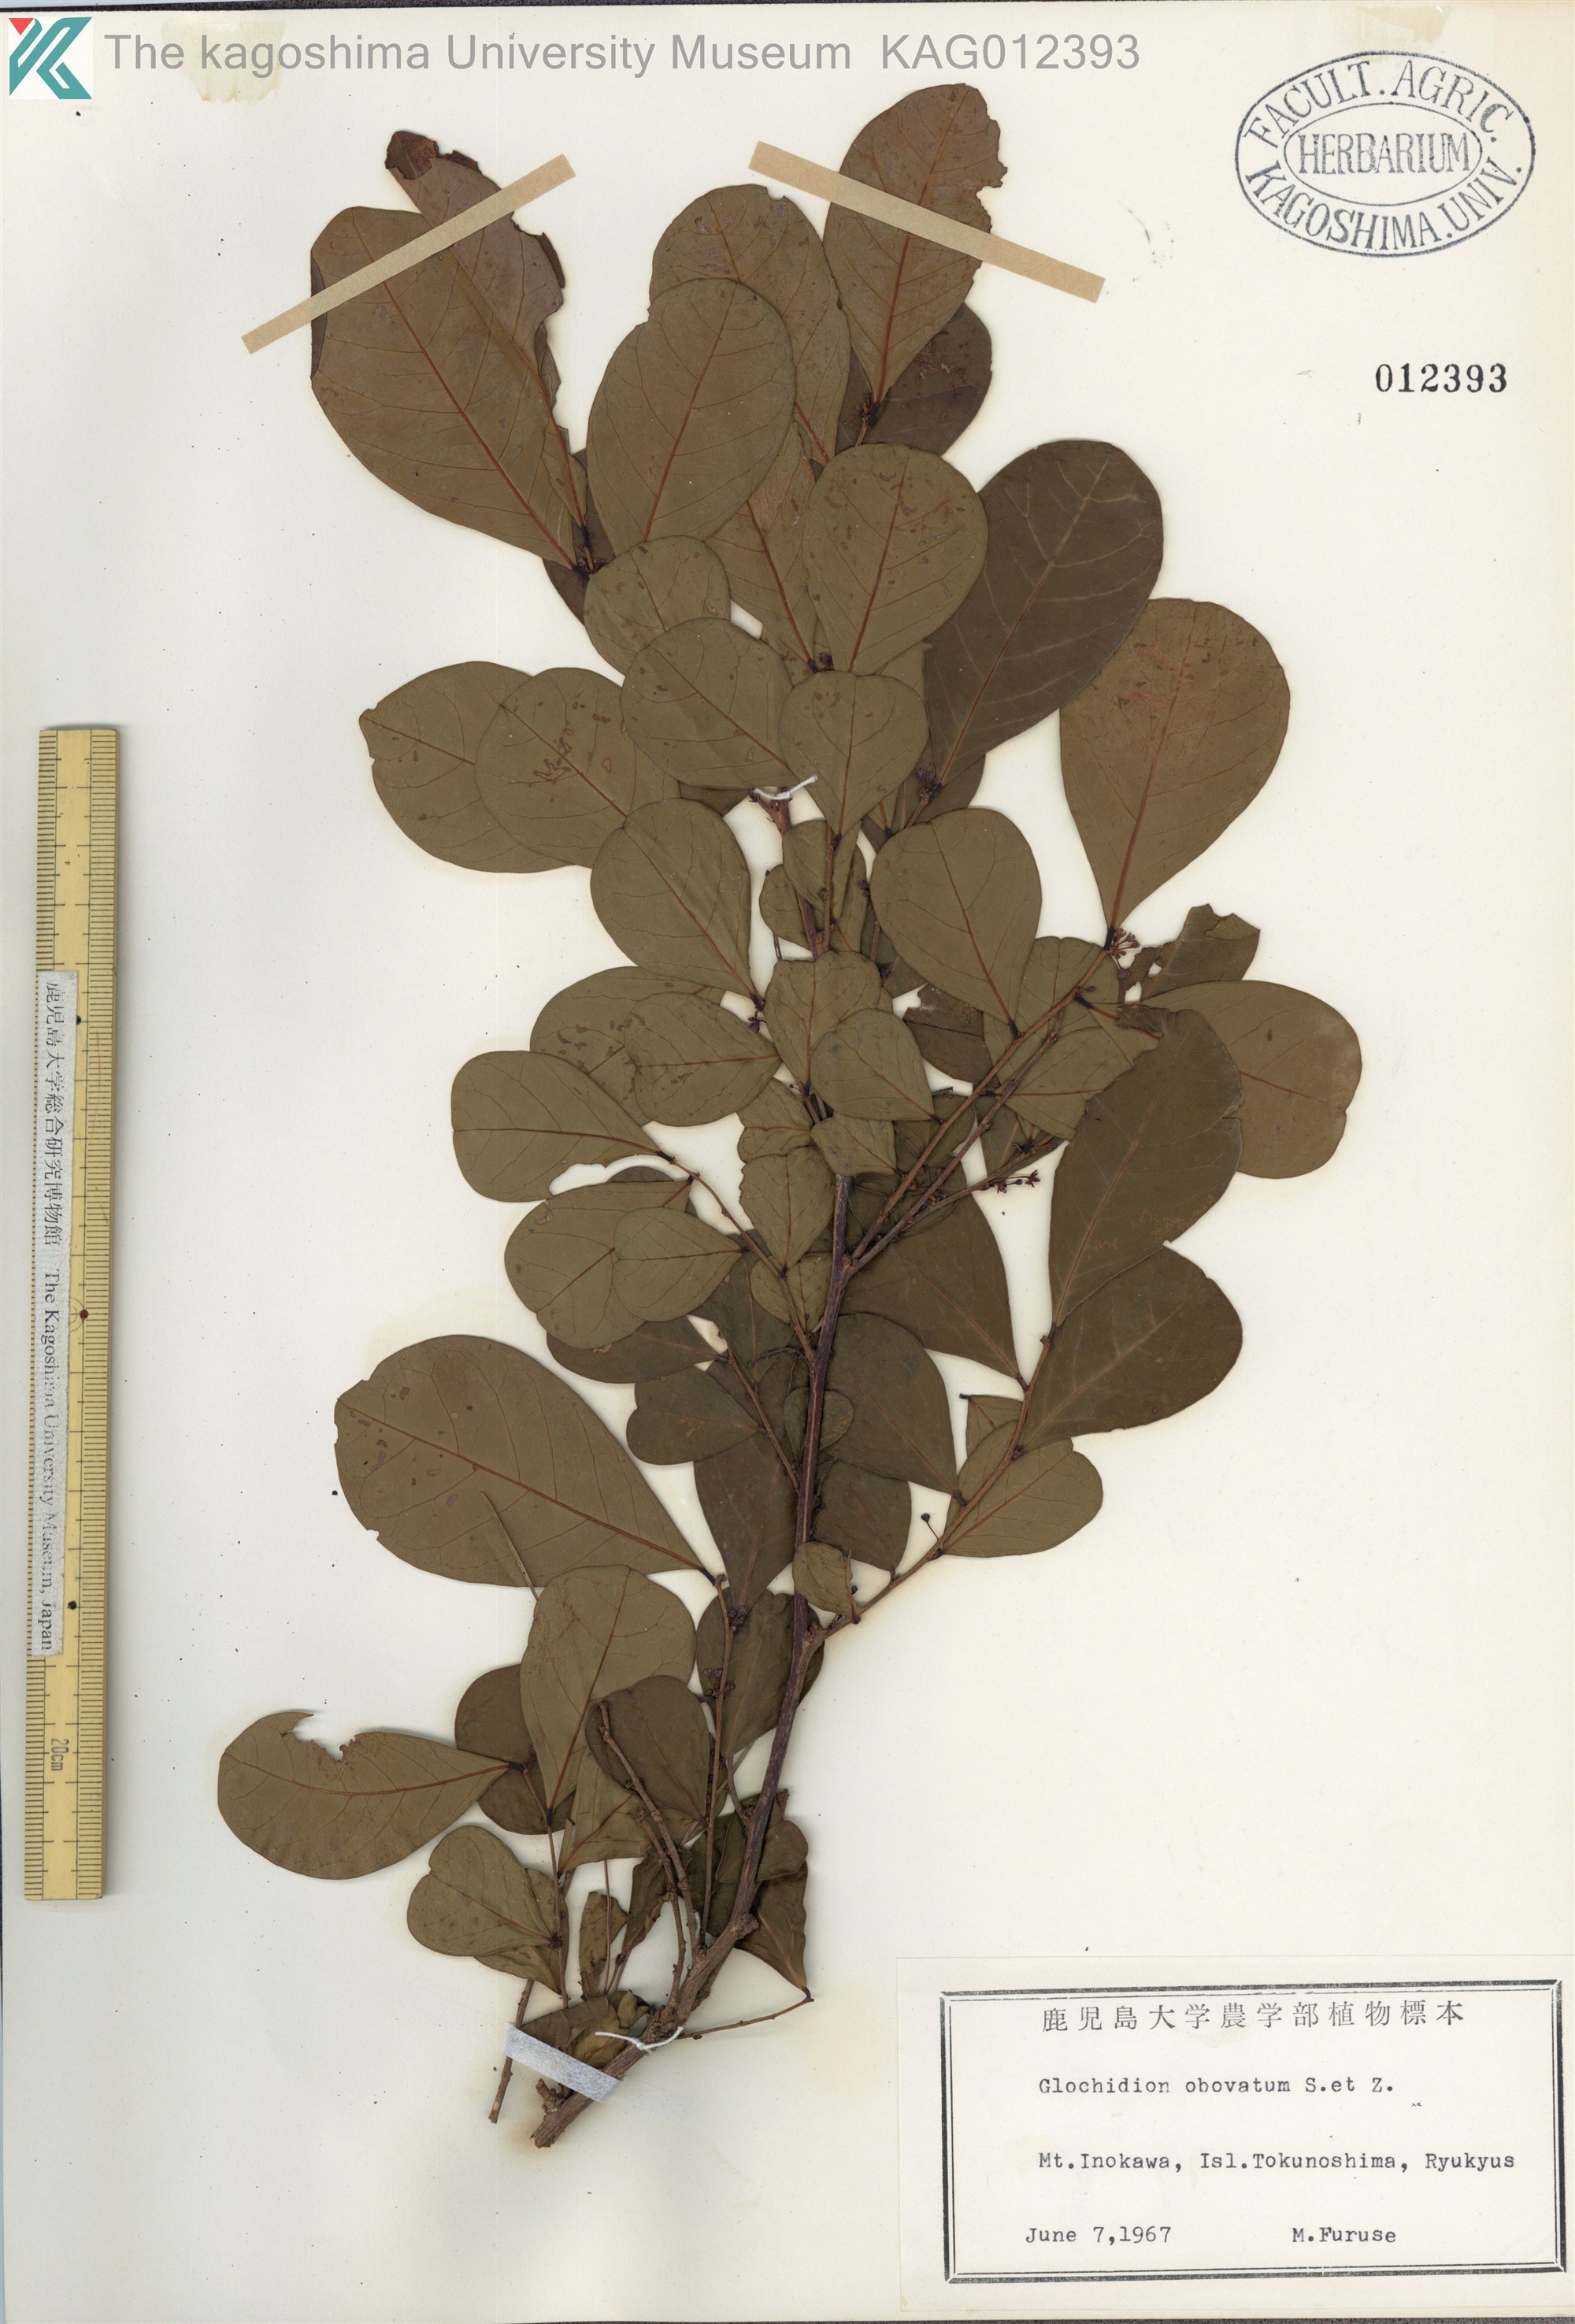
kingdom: Plantae
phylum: Tracheophyta
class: Magnoliopsida
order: Malpighiales
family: Phyllanthaceae
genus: Glochidion
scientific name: Glochidion obovatum
